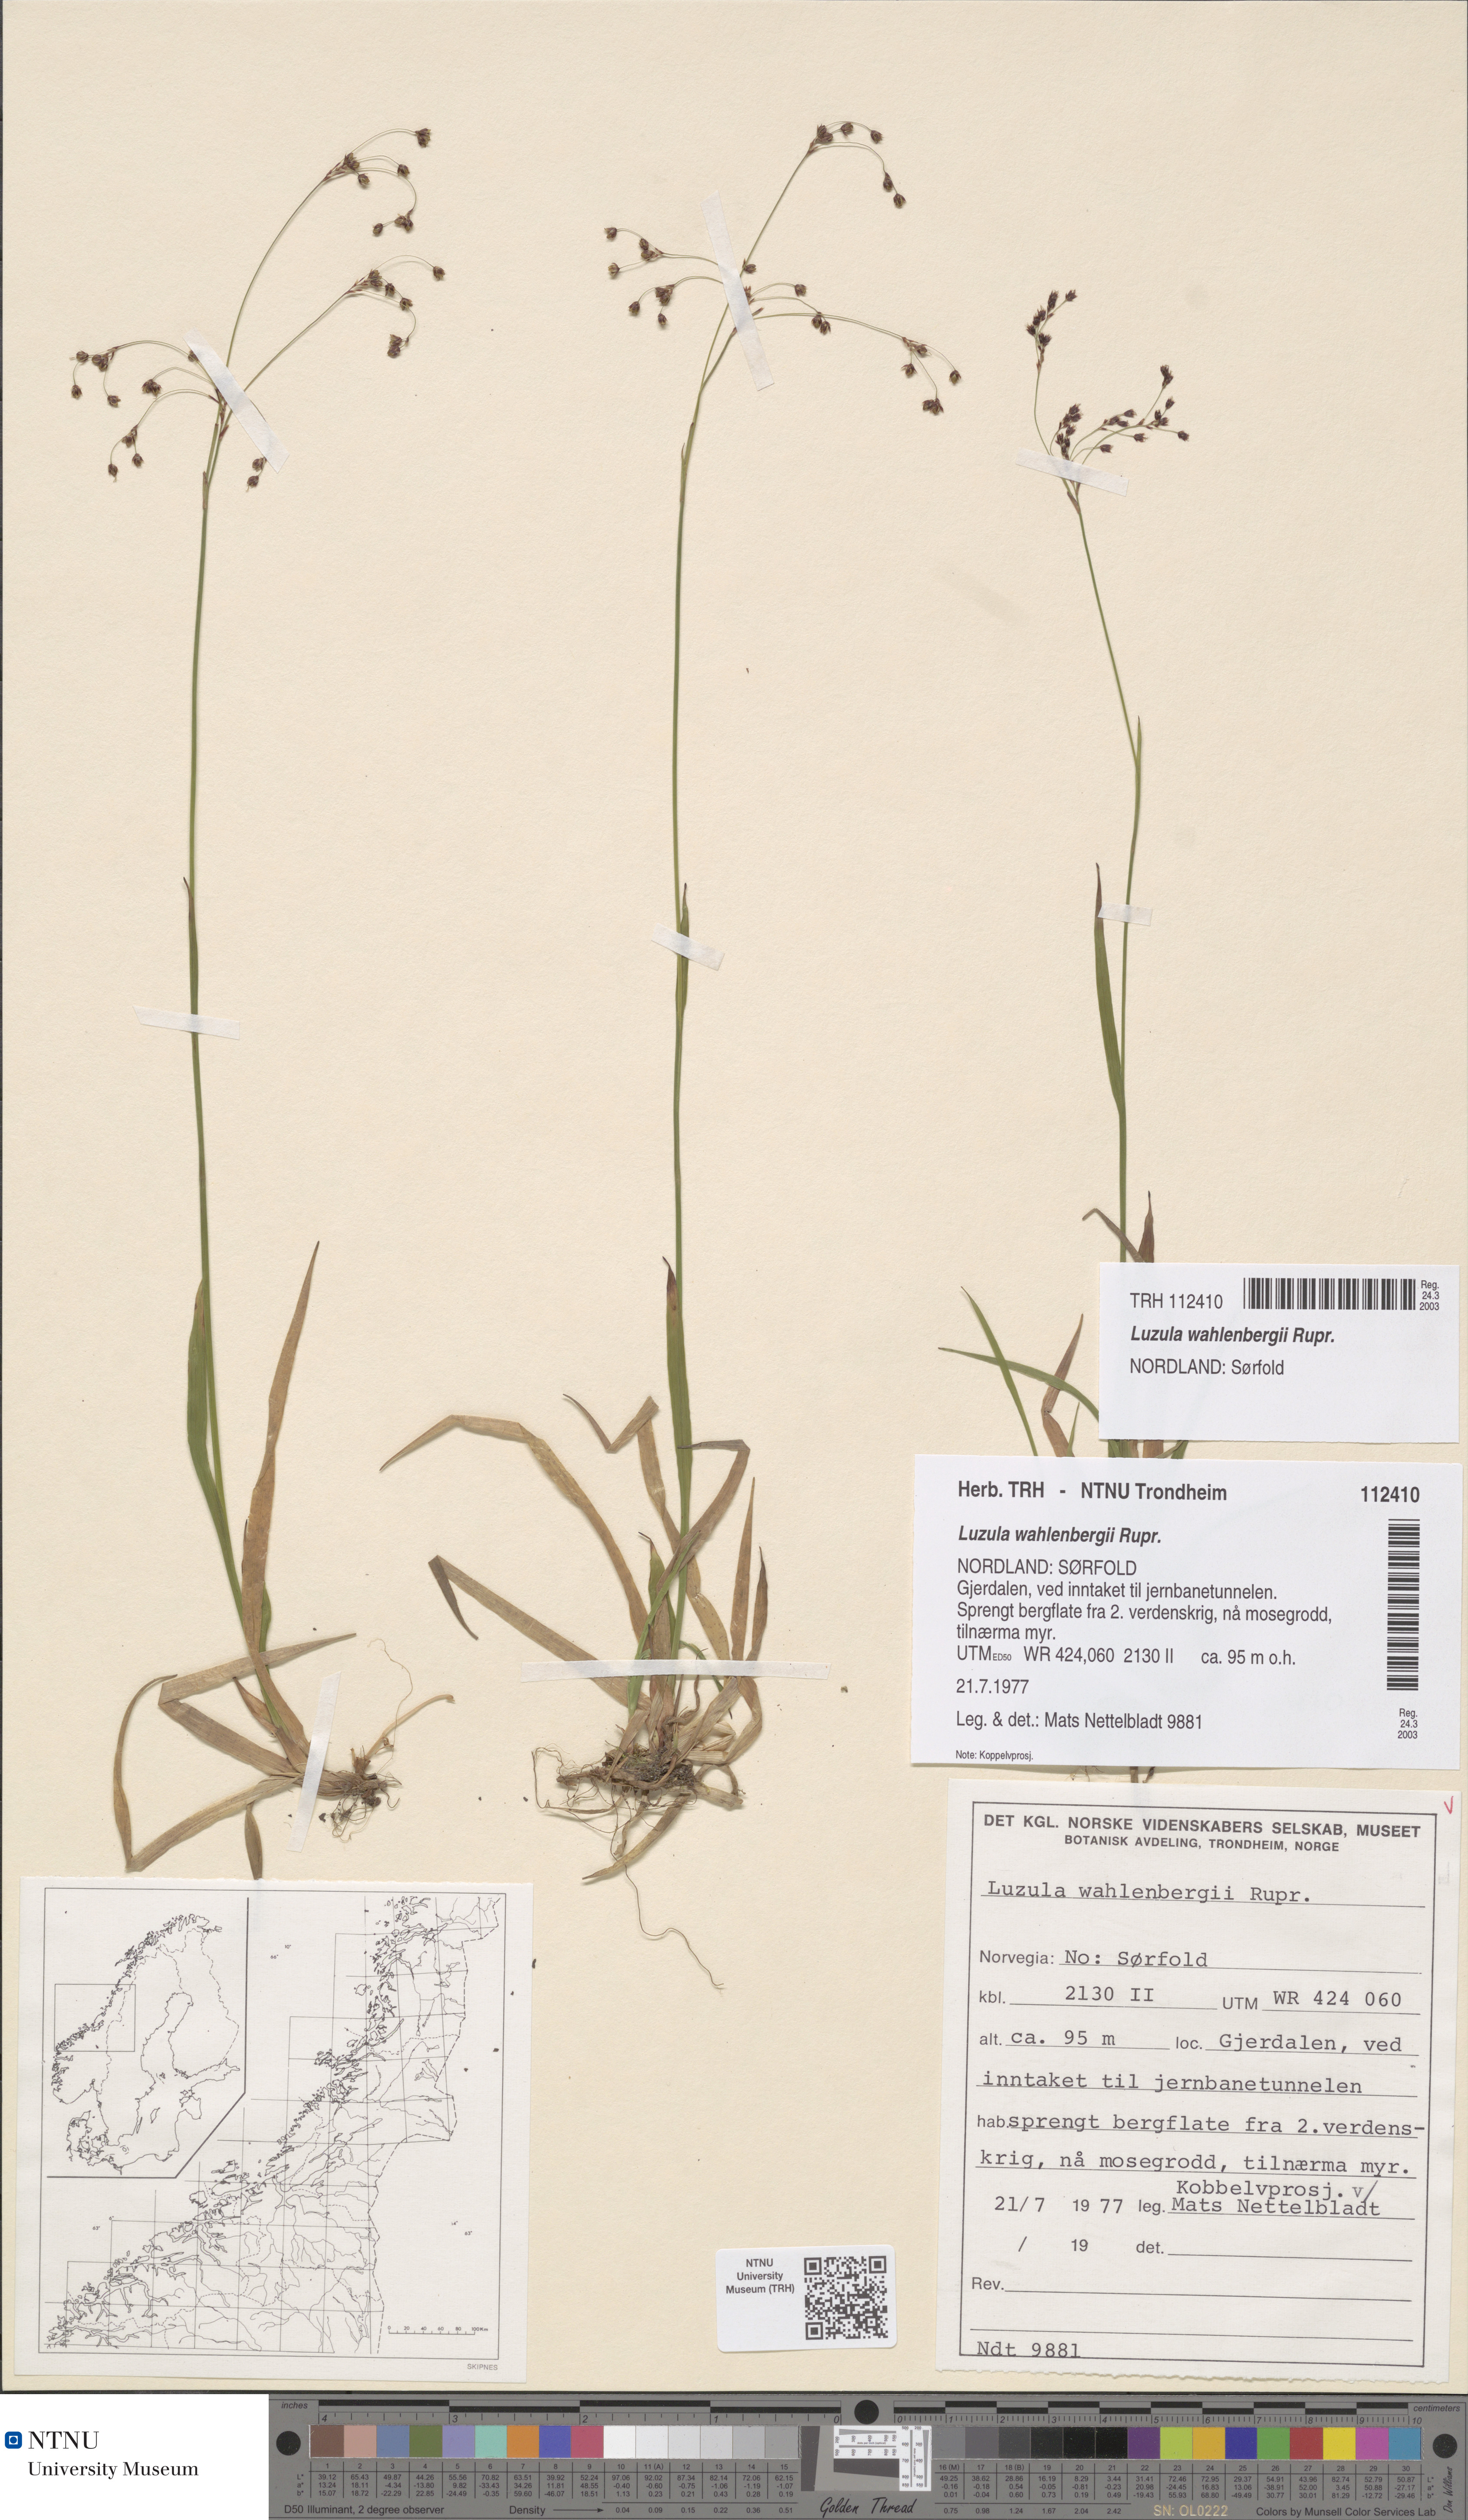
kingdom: Plantae
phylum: Tracheophyta
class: Liliopsida
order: Poales
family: Juncaceae
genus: Luzula
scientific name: Luzula wahlenbergii
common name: Wahlenberg's wood-rush
